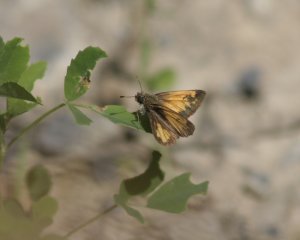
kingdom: Animalia
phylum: Arthropoda
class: Insecta
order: Lepidoptera
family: Hesperiidae
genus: Lon
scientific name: Lon hobomok
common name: Hobomok Skipper
